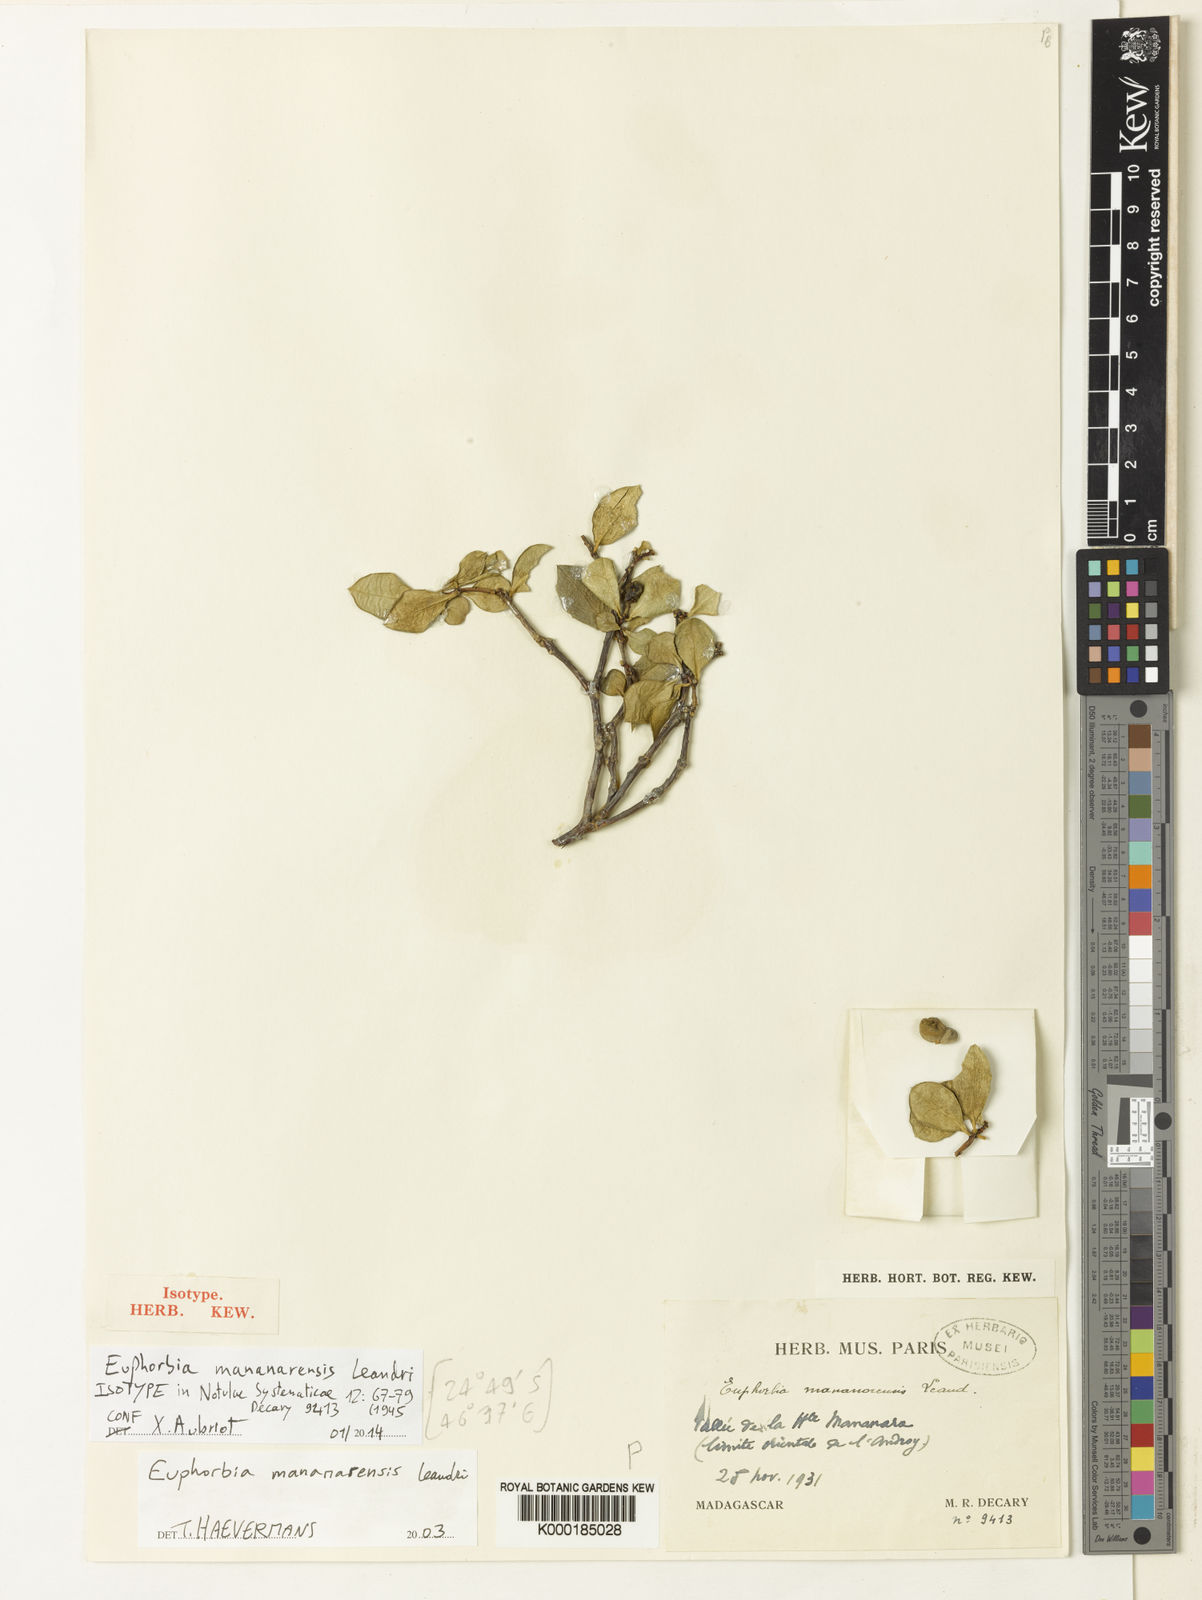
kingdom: Plantae
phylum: Tracheophyta
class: Magnoliopsida
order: Malpighiales
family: Euphorbiaceae
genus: Euphorbia
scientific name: Euphorbia mananarensis
